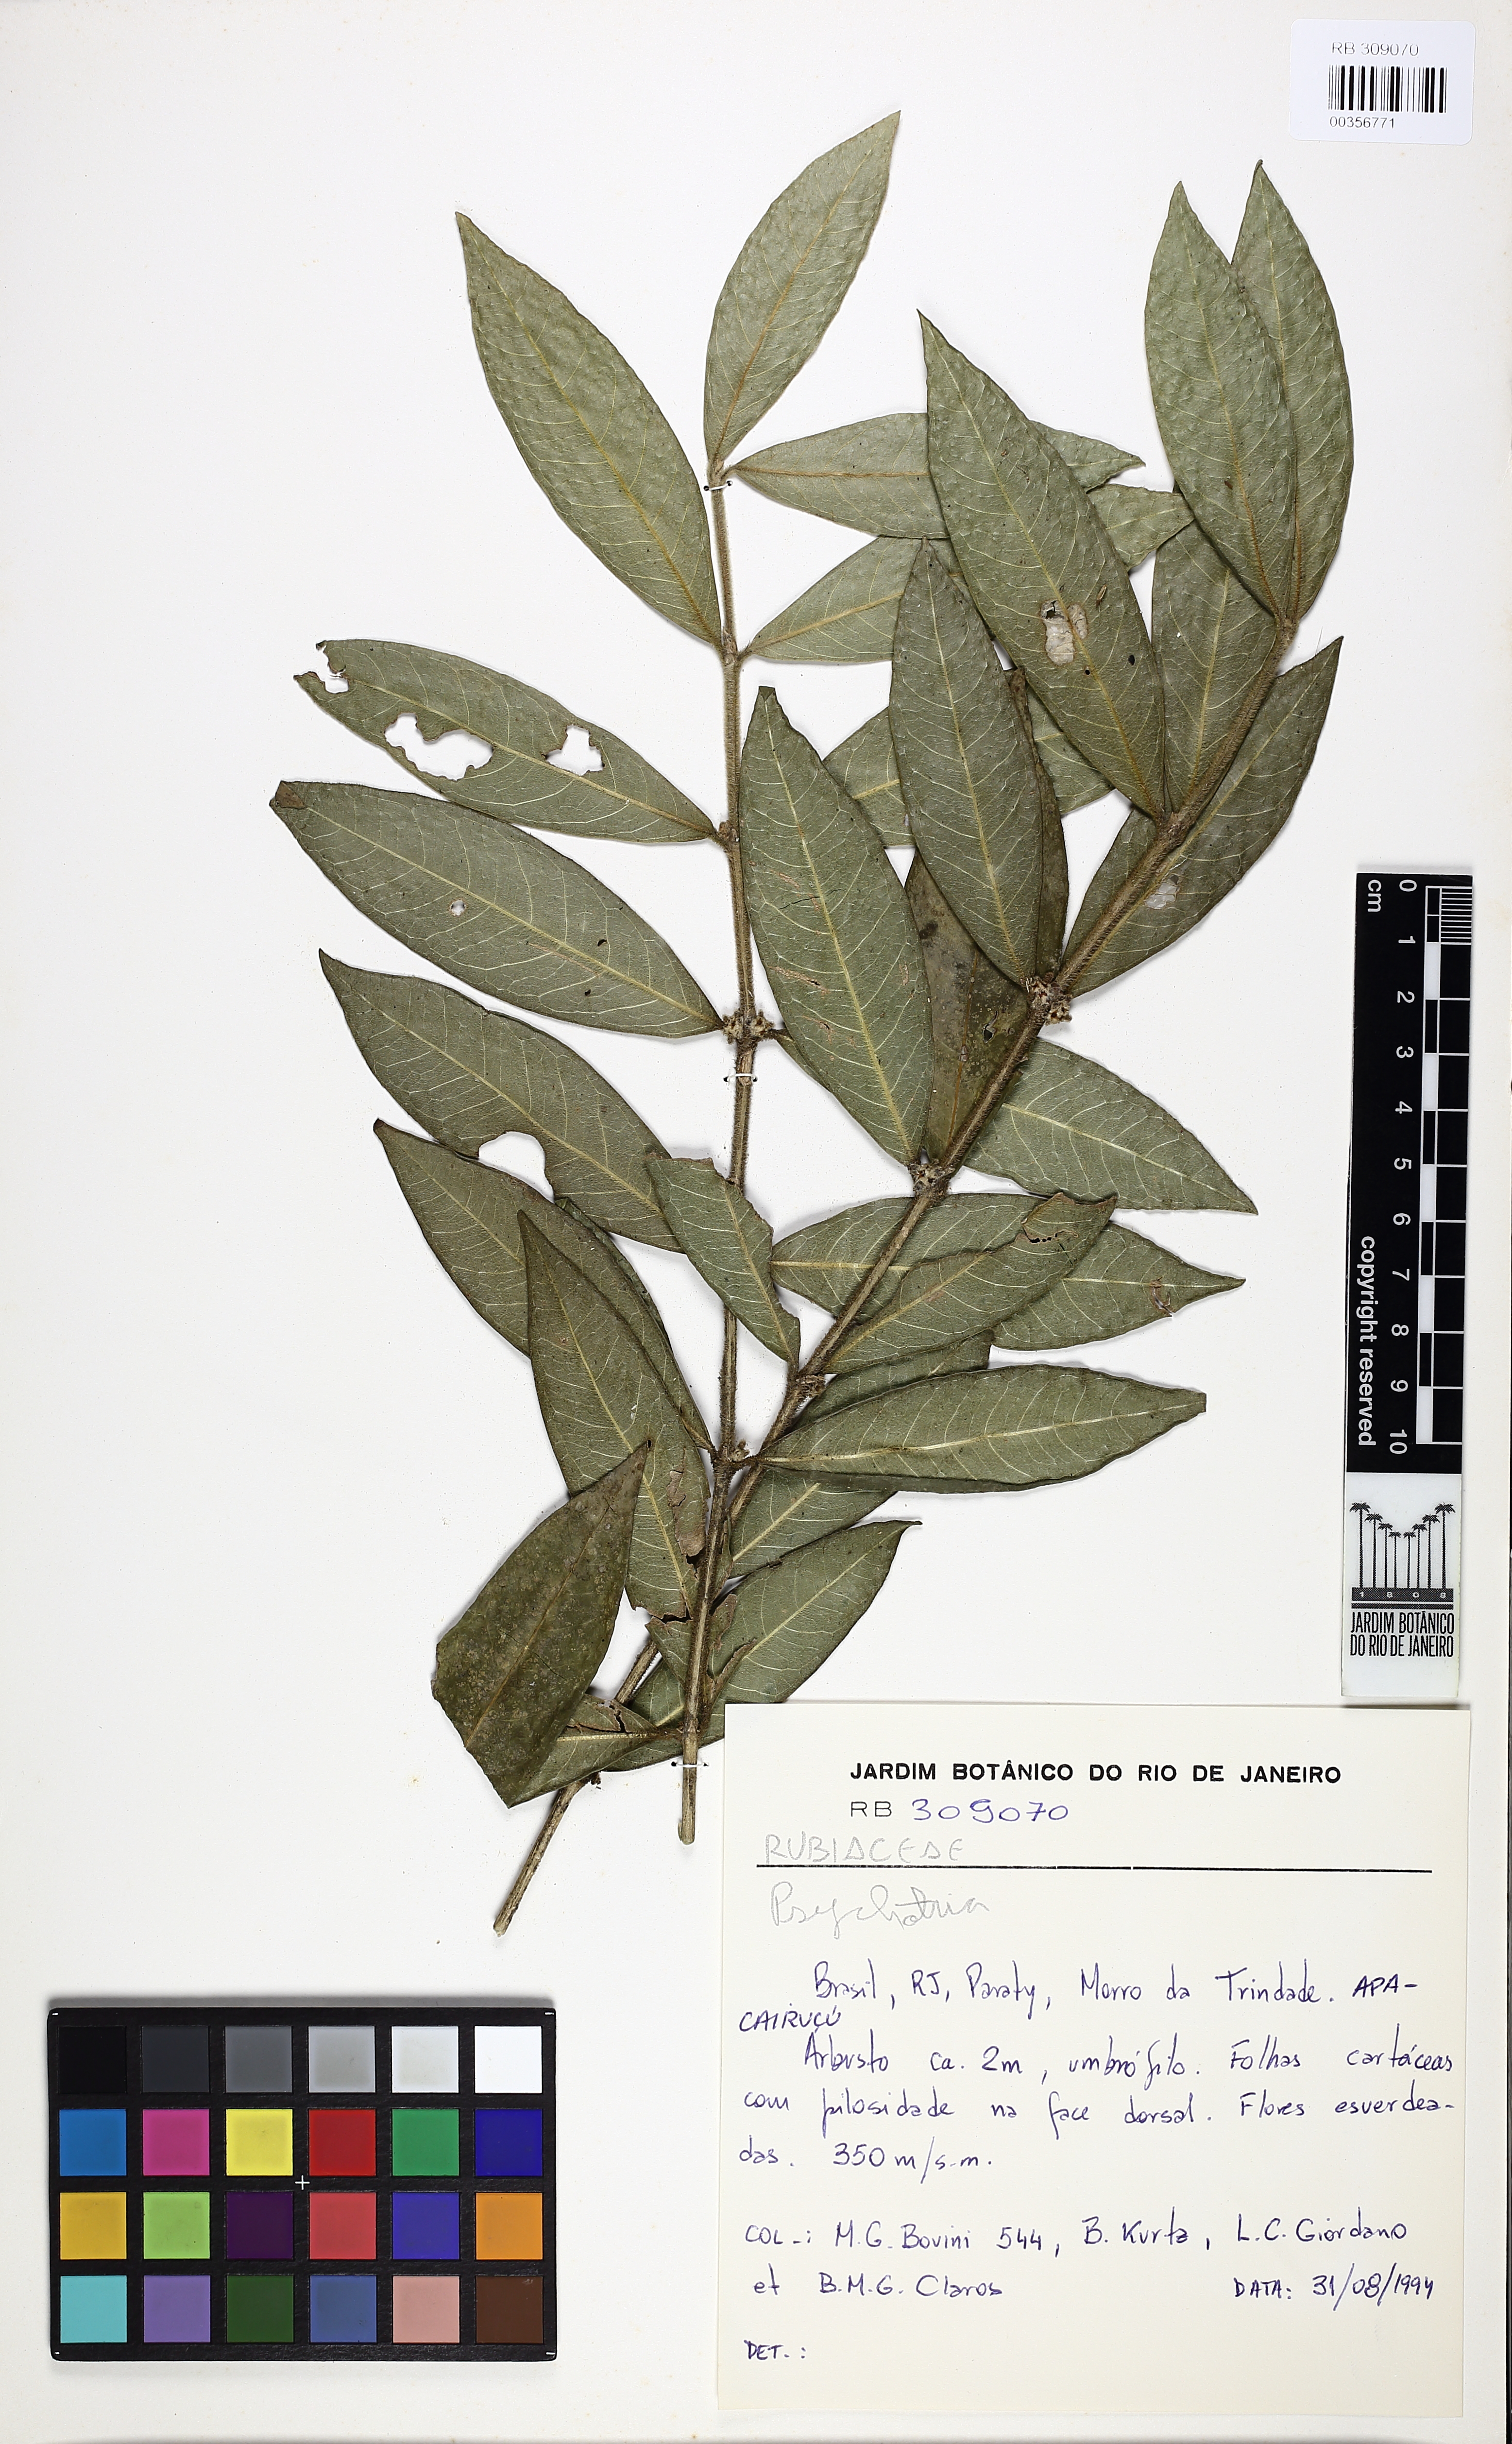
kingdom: Plantae
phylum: Tracheophyta
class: Magnoliopsida
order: Gentianales
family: Rubiaceae
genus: Psychotria
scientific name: Psychotria
